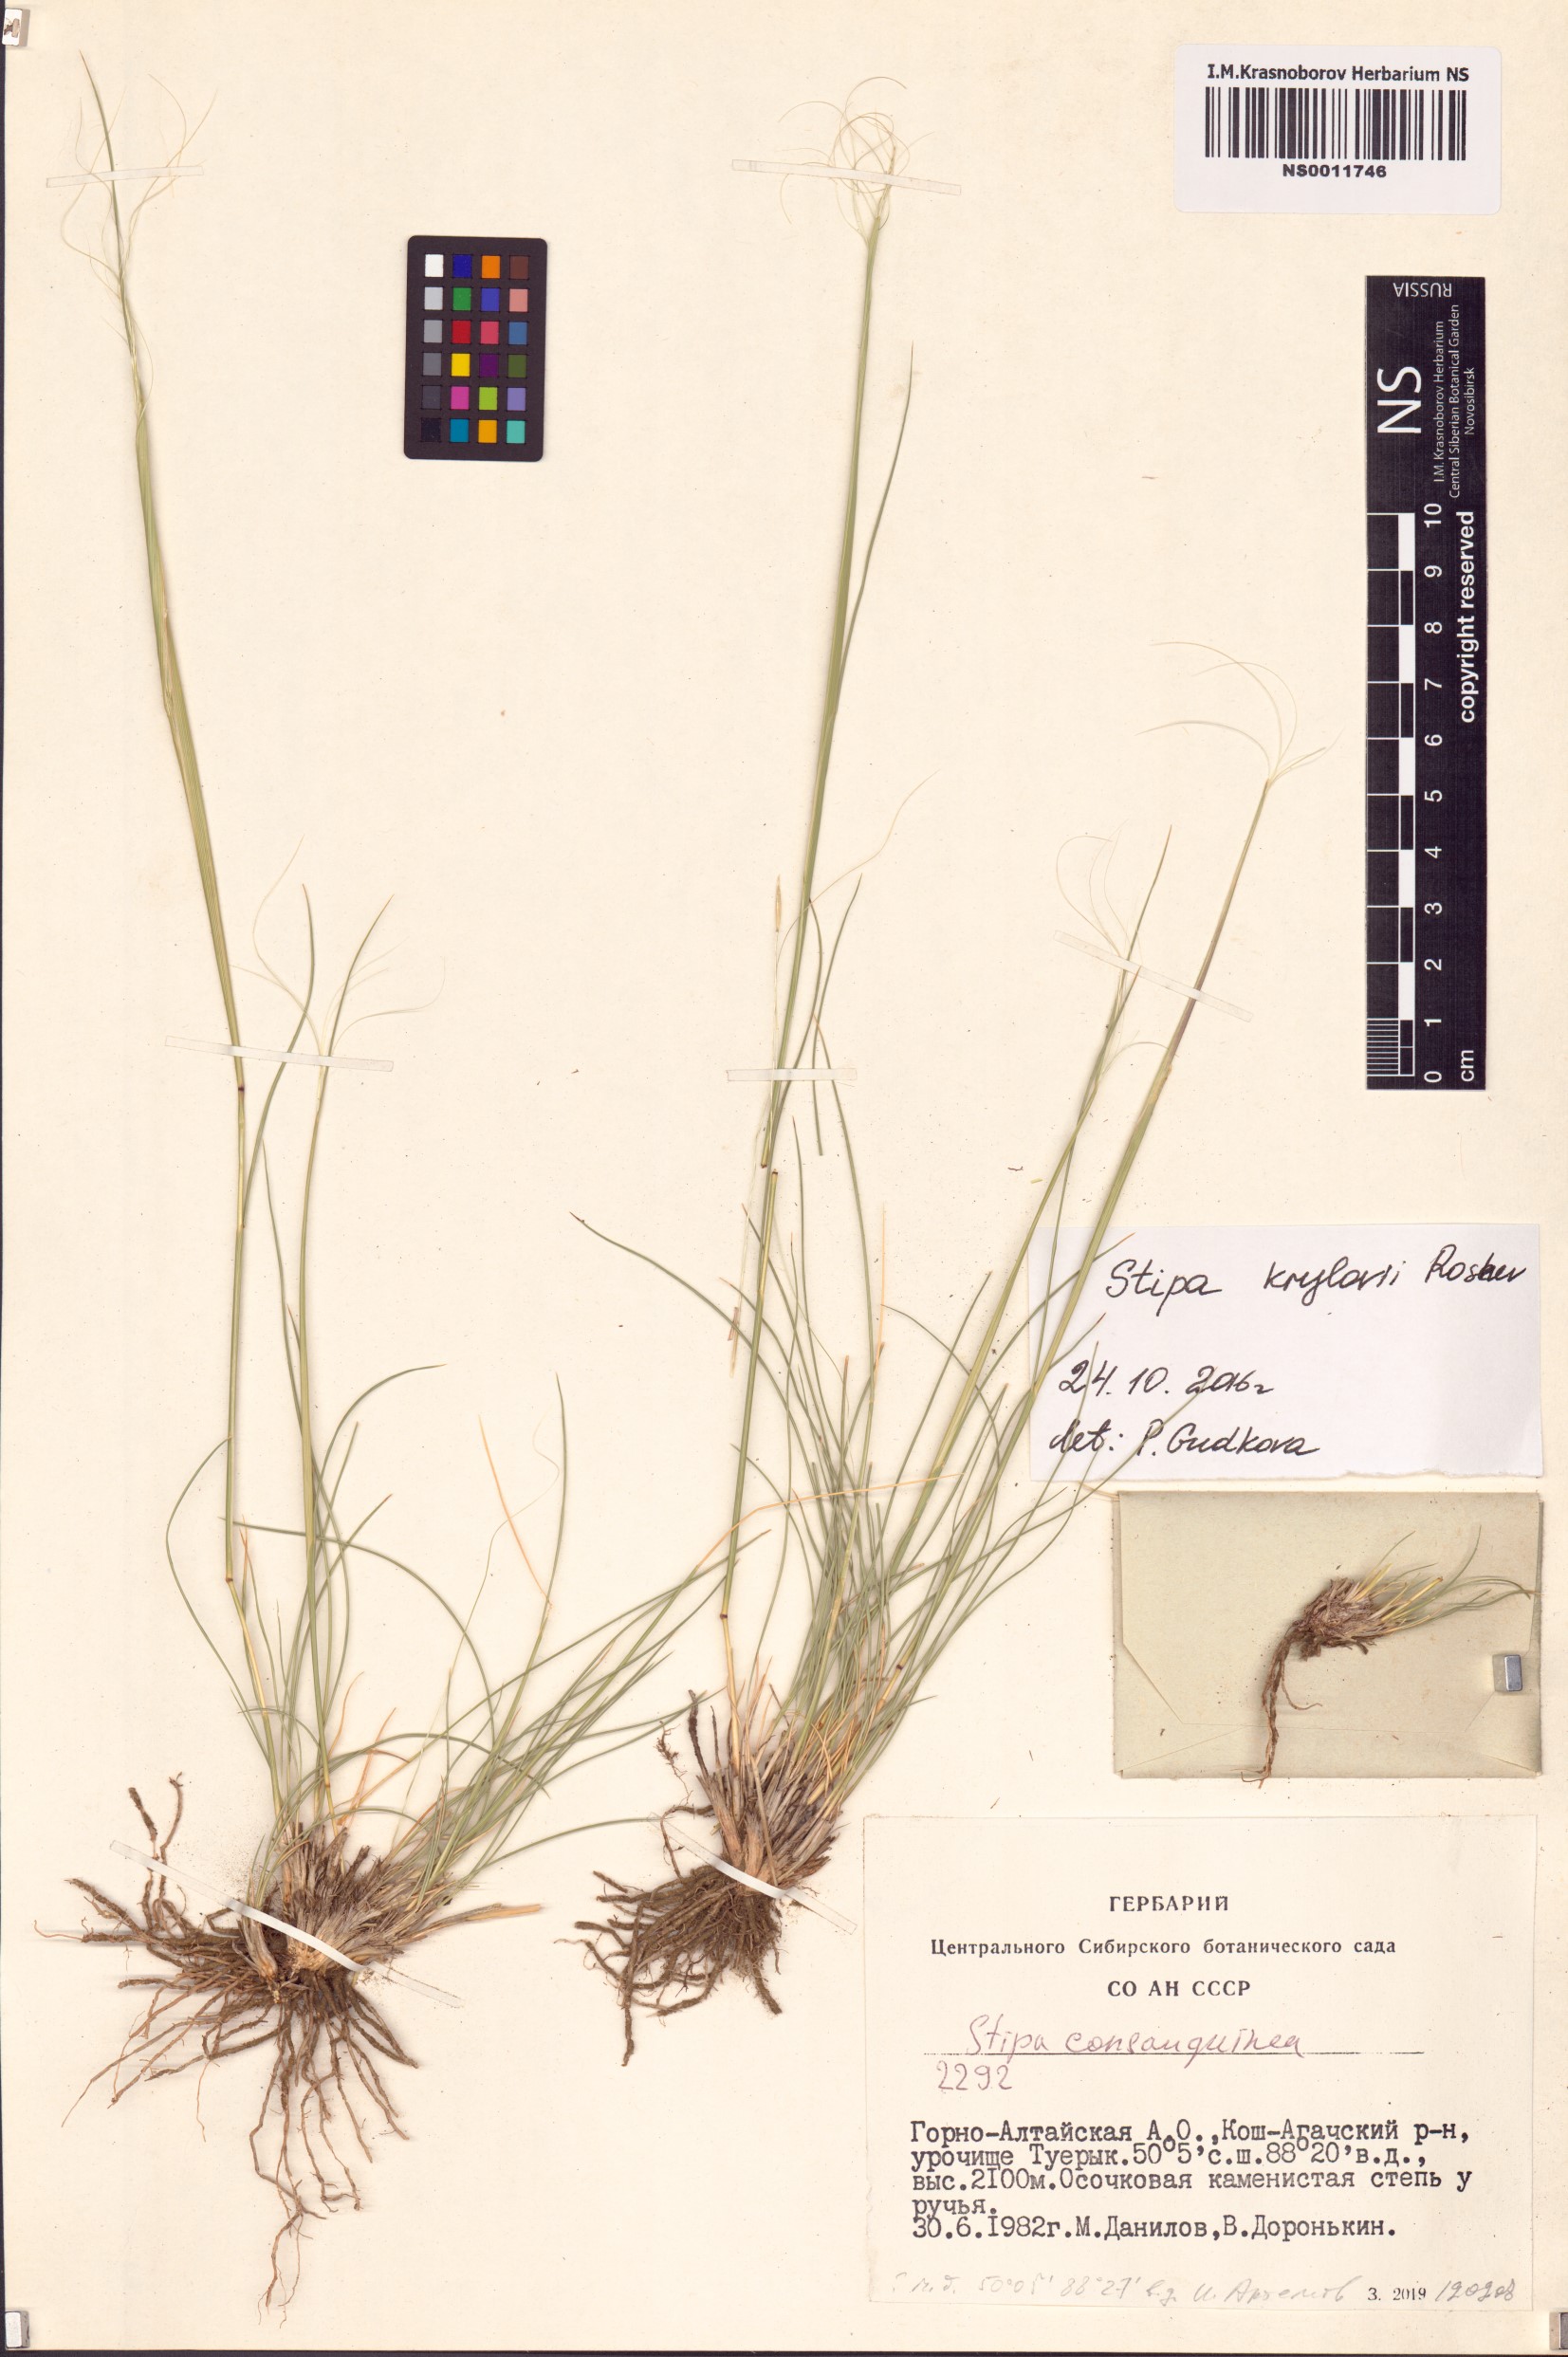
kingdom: Plantae
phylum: Tracheophyta
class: Liliopsida
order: Poales
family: Poaceae
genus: Stipa
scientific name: Stipa krylovii
